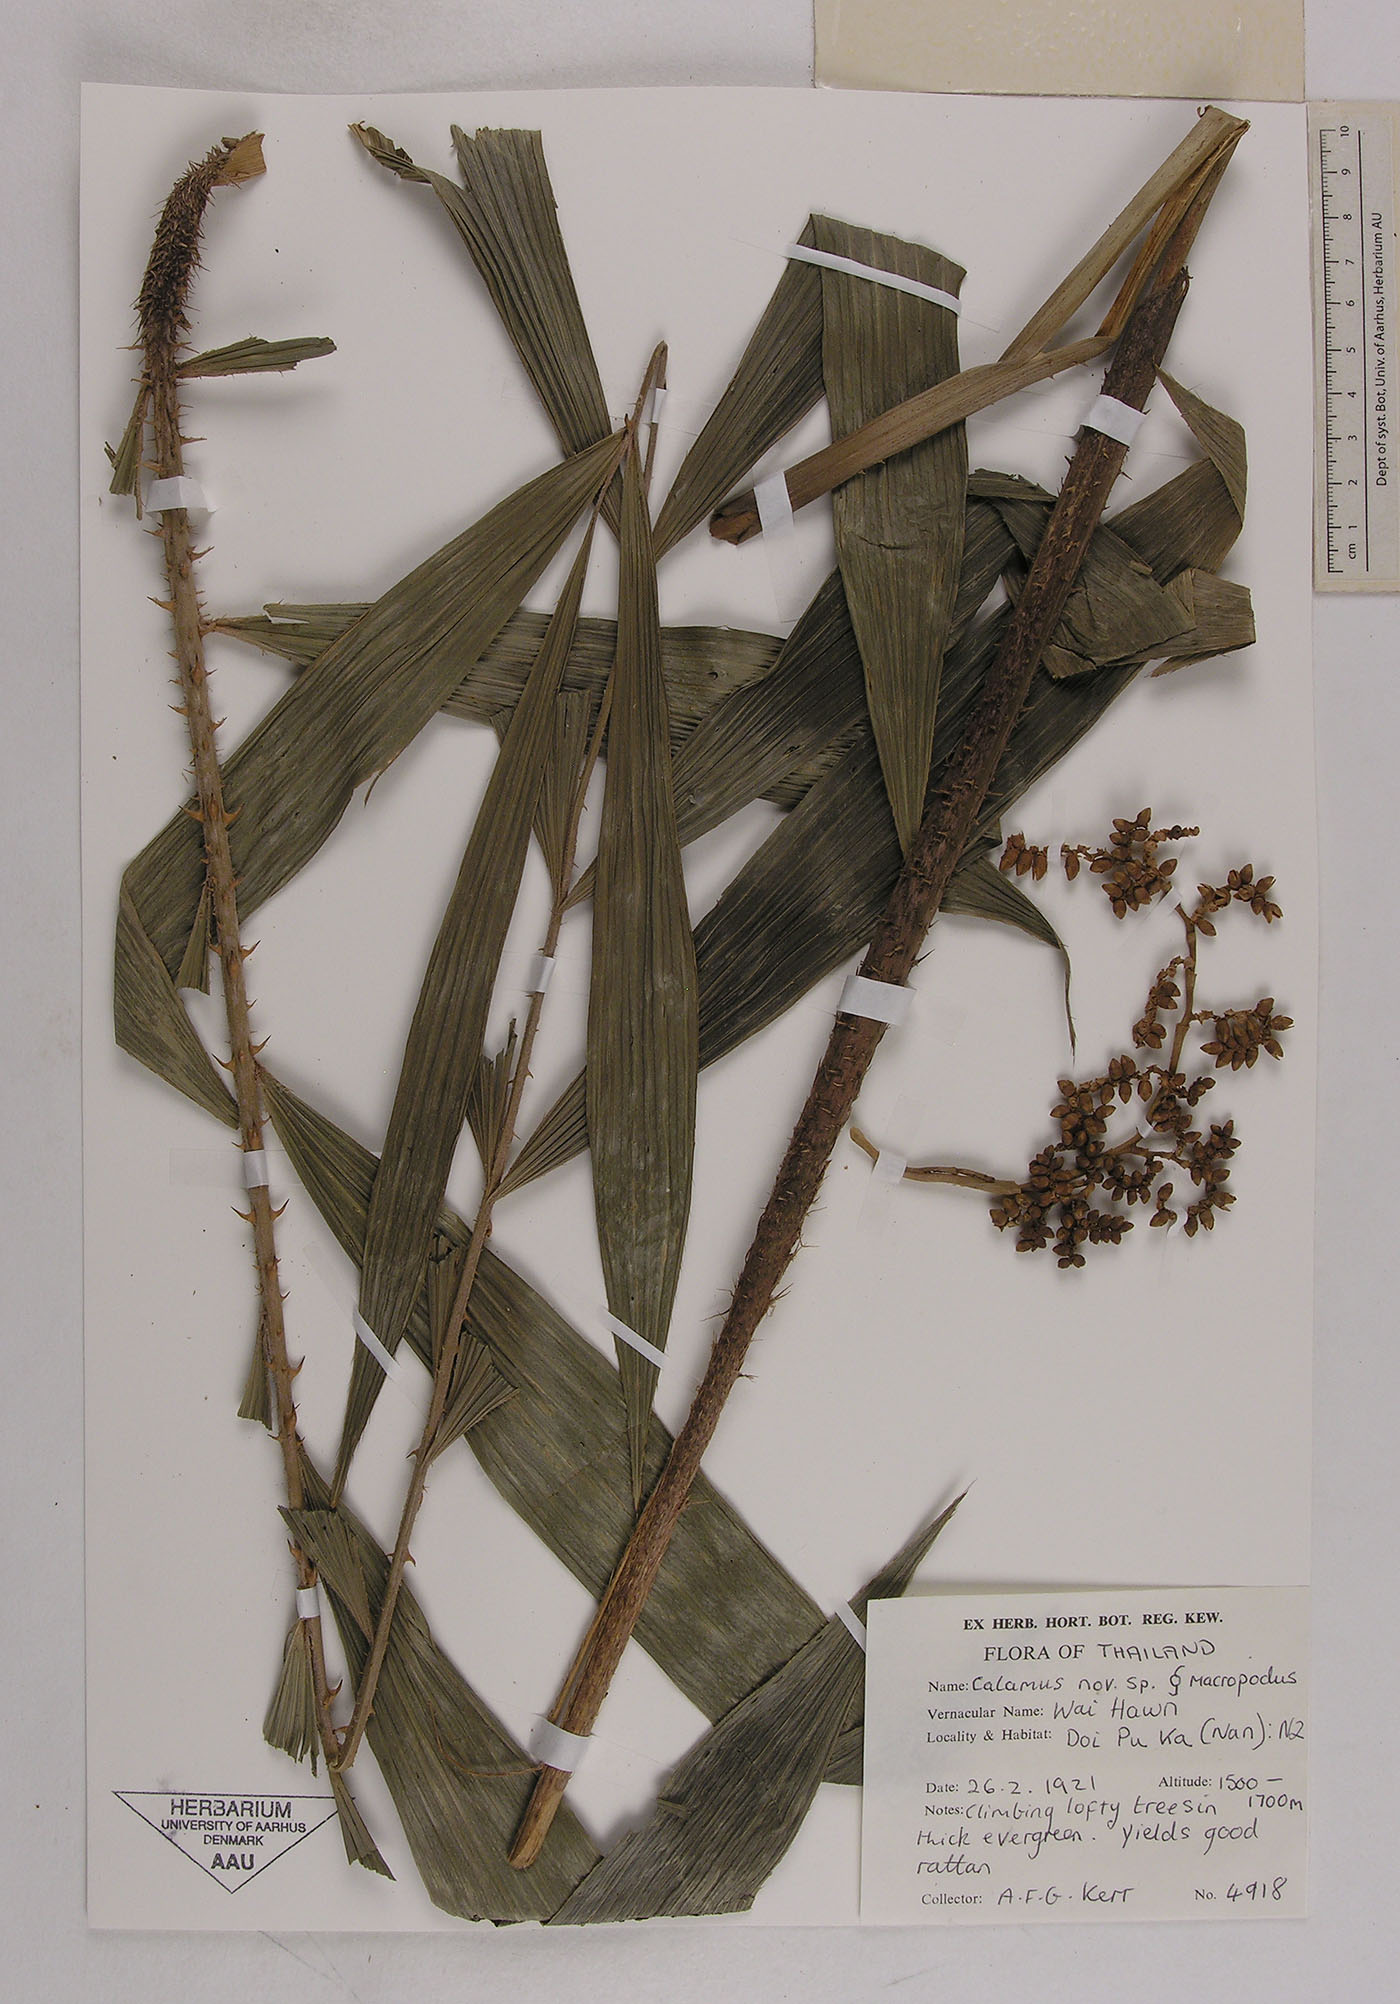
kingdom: Plantae
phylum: Tracheophyta
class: Liliopsida
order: Arecales
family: Arecaceae
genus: Calamus
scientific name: Calamus acanthospathus
